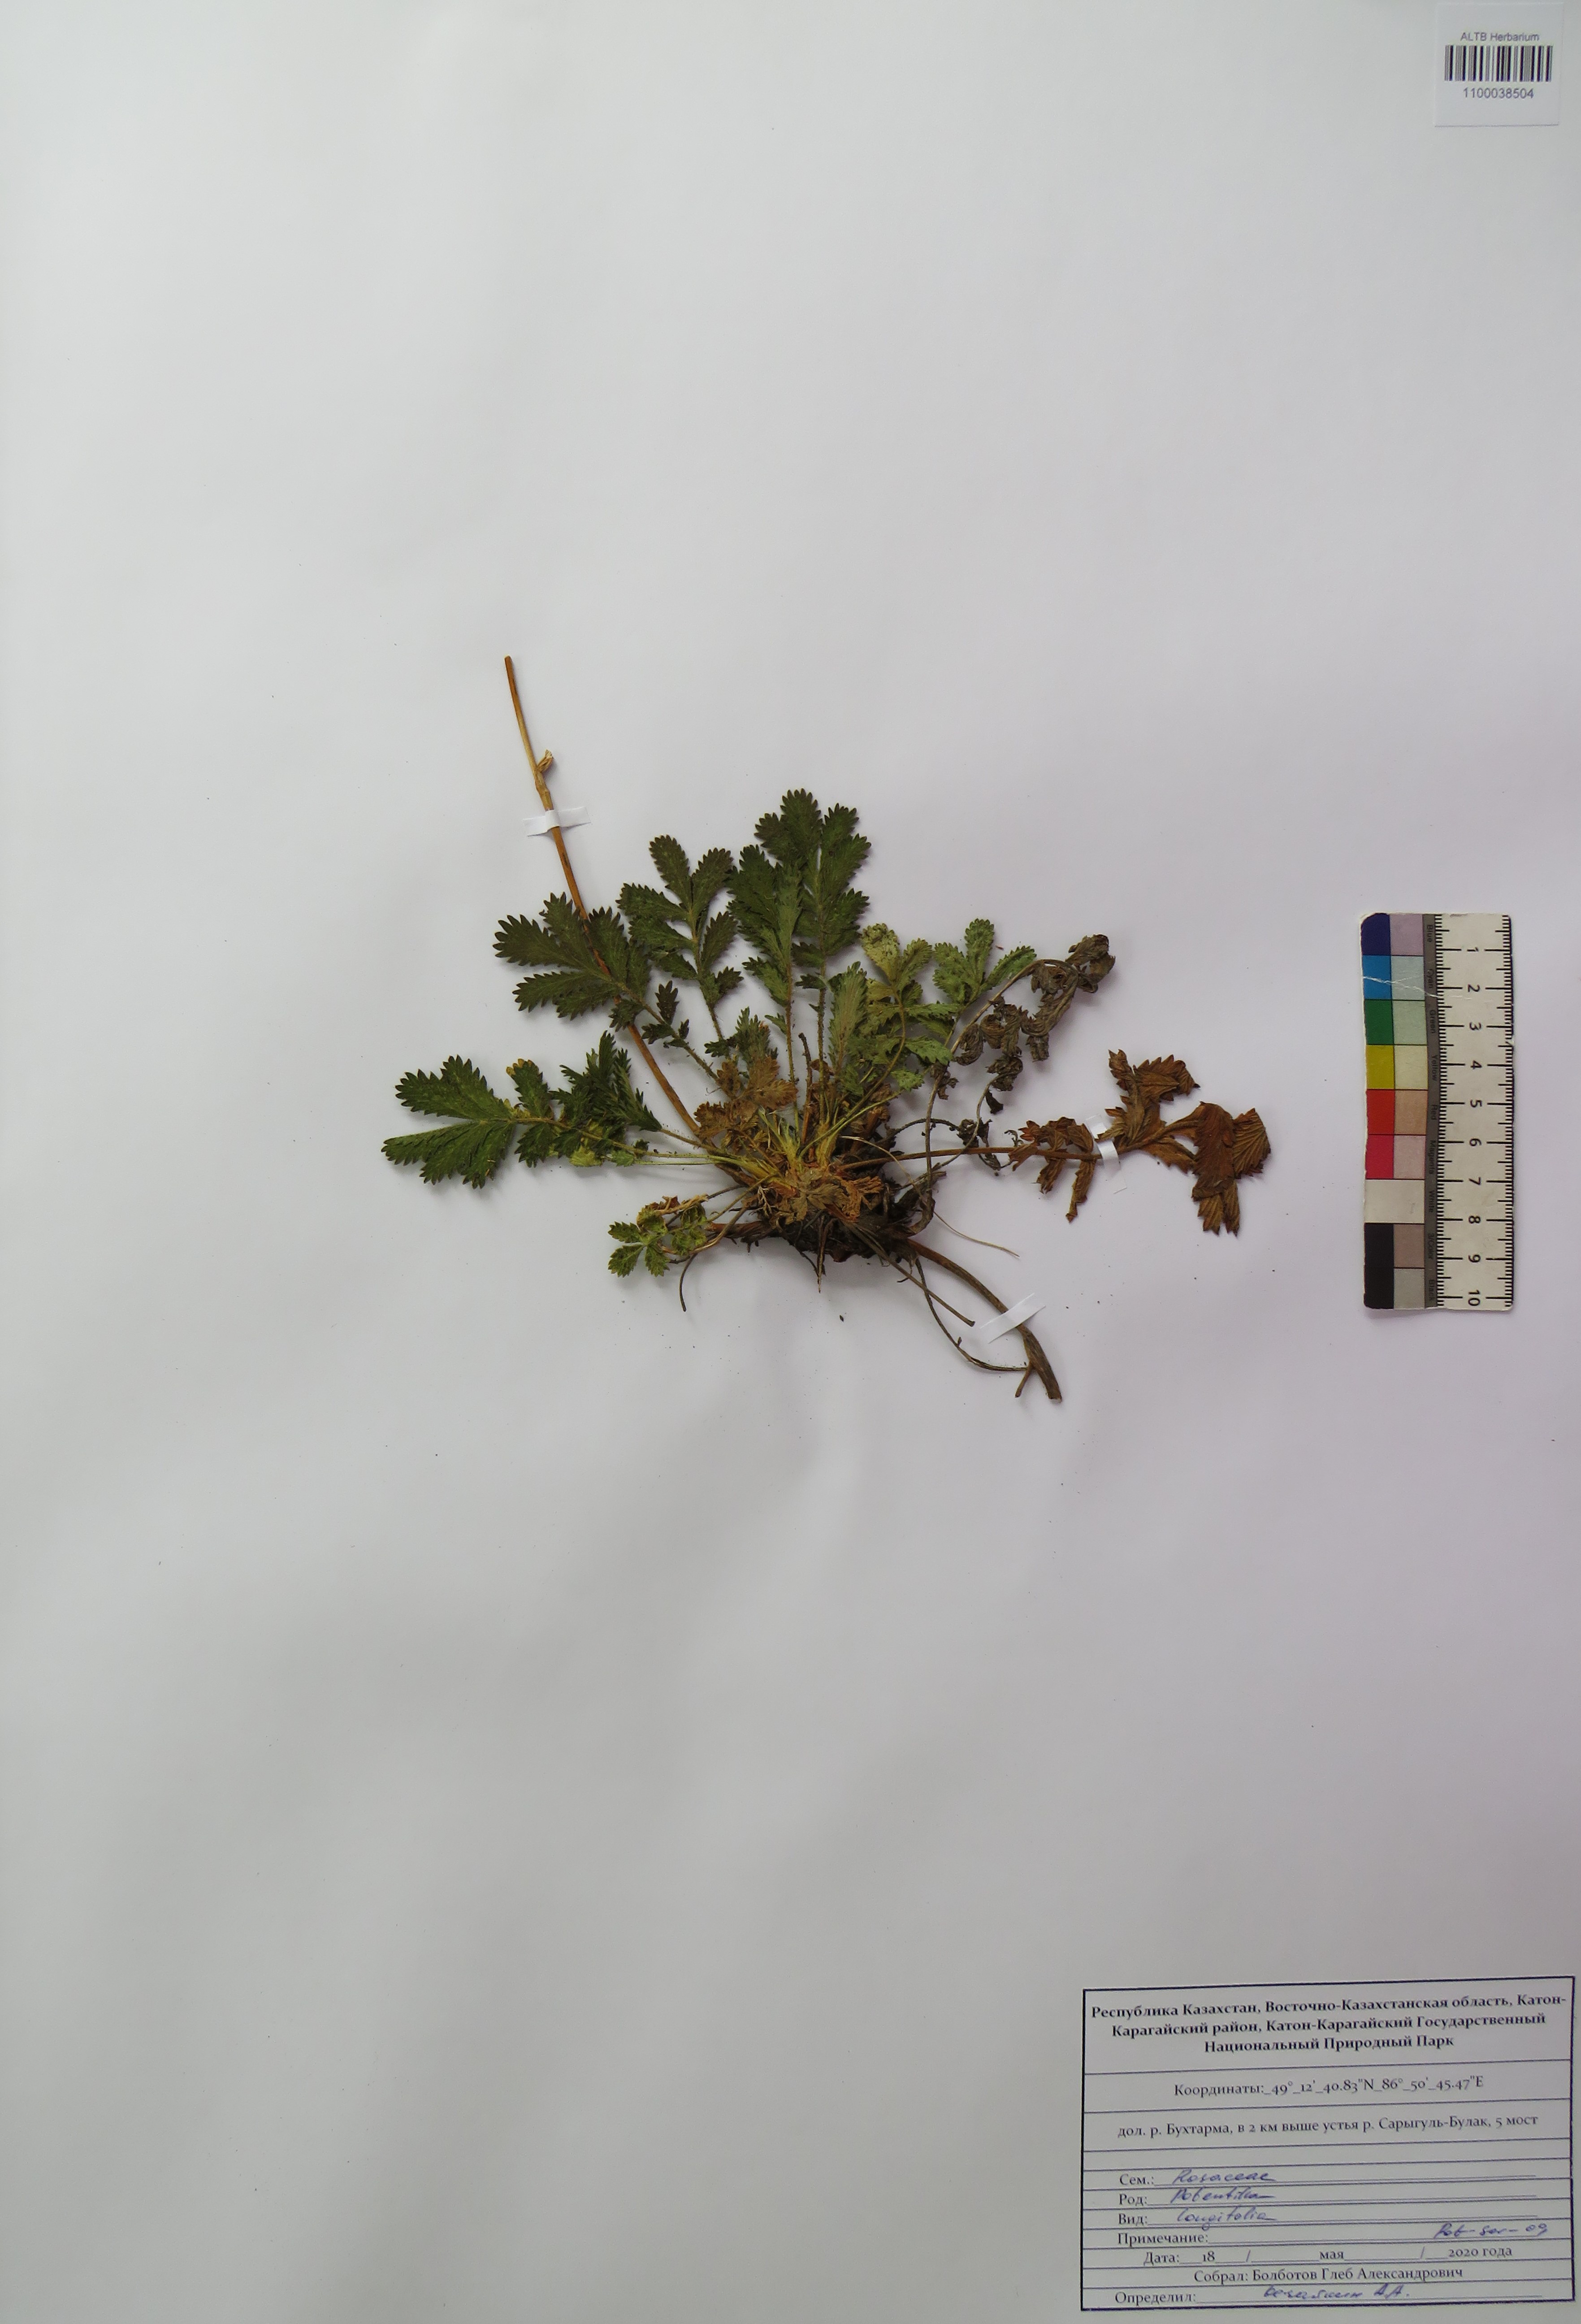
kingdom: Plantae
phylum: Tracheophyta
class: Magnoliopsida
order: Rosales
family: Rosaceae
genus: Potentilla
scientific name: Potentilla longifolia
